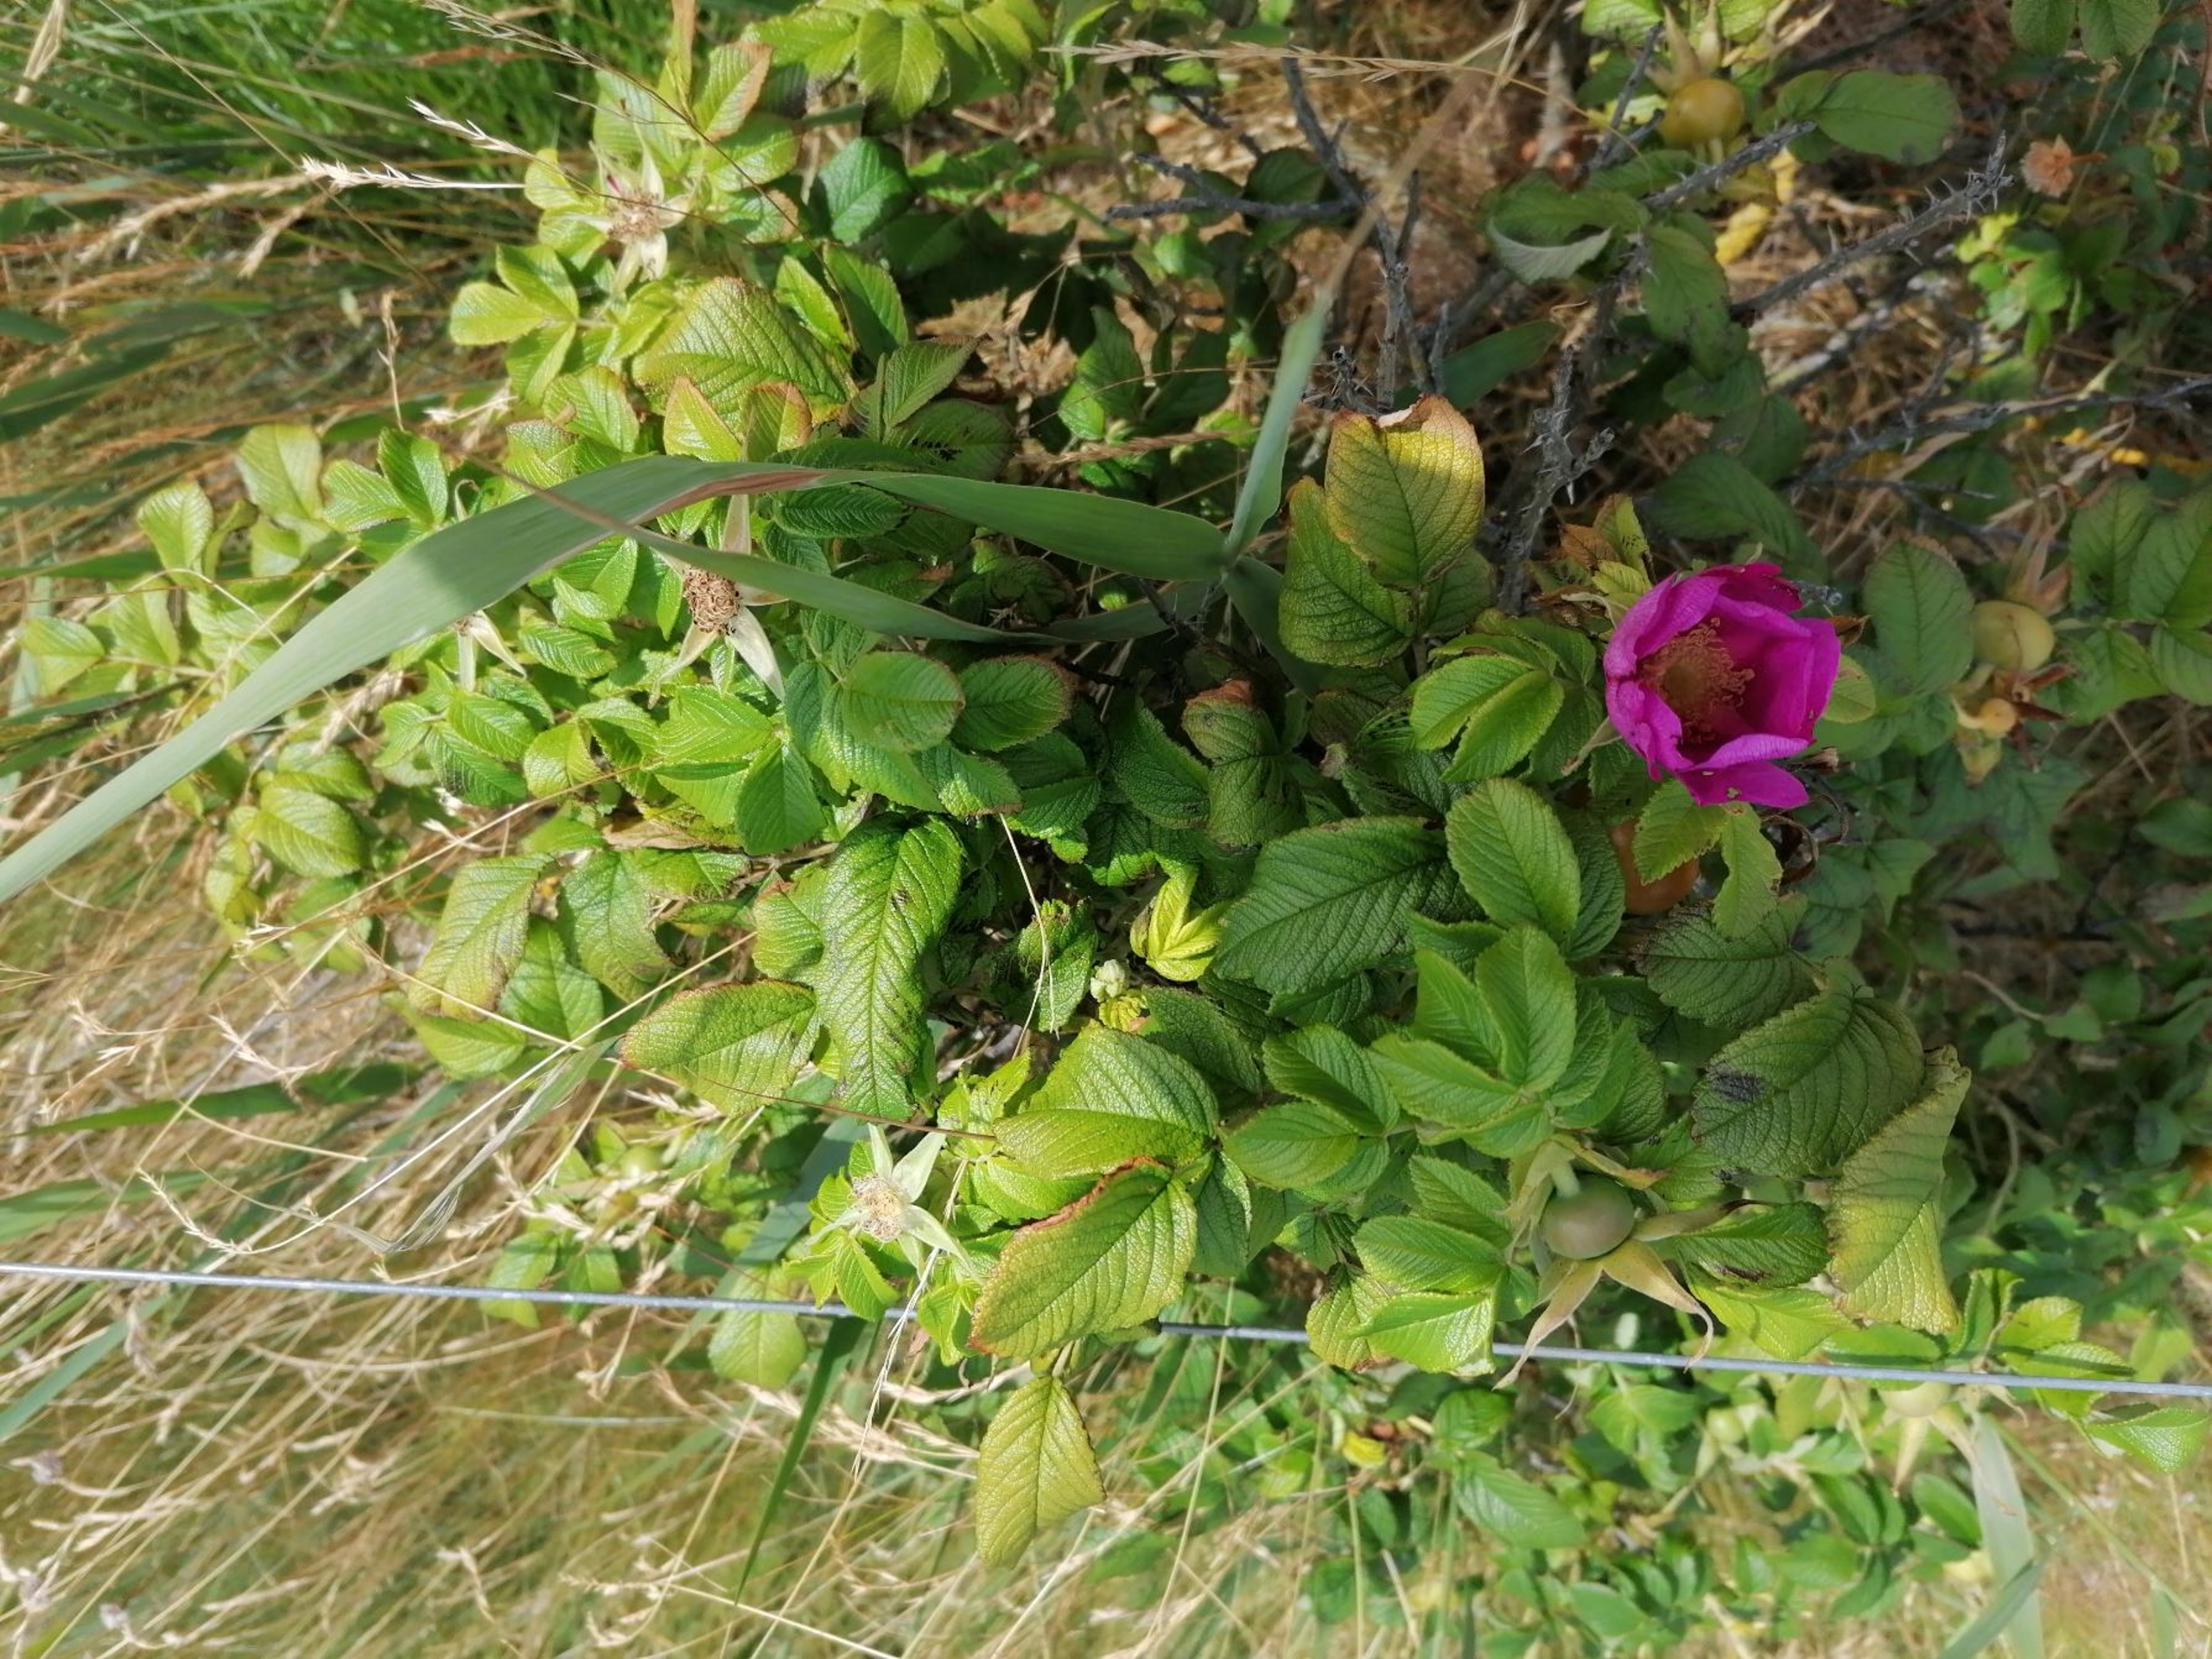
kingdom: Plantae
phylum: Tracheophyta
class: Magnoliopsida
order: Rosales
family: Rosaceae
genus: Rosa
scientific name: Rosa rugosa
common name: Rynket rose
